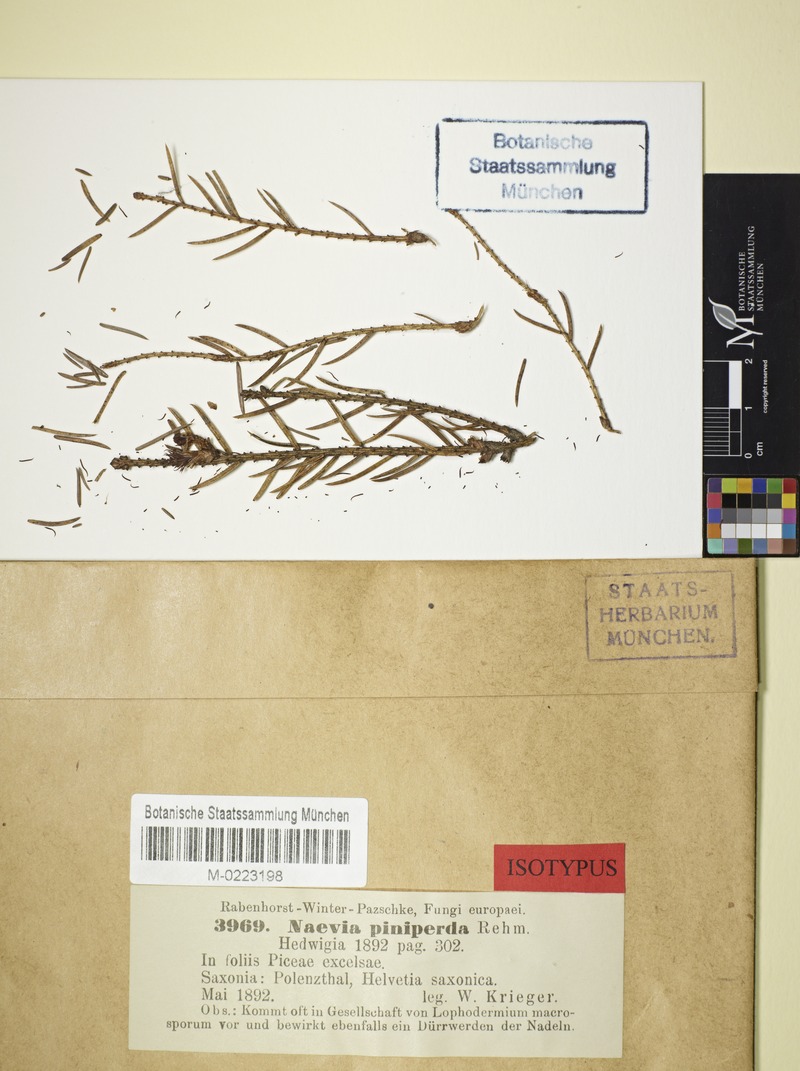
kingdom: Fungi
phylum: Ascomycota
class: Leotiomycetes
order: Helotiales
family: Cenangiaceae
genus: Sarcotrochila
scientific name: Sarcotrochila piniperda
